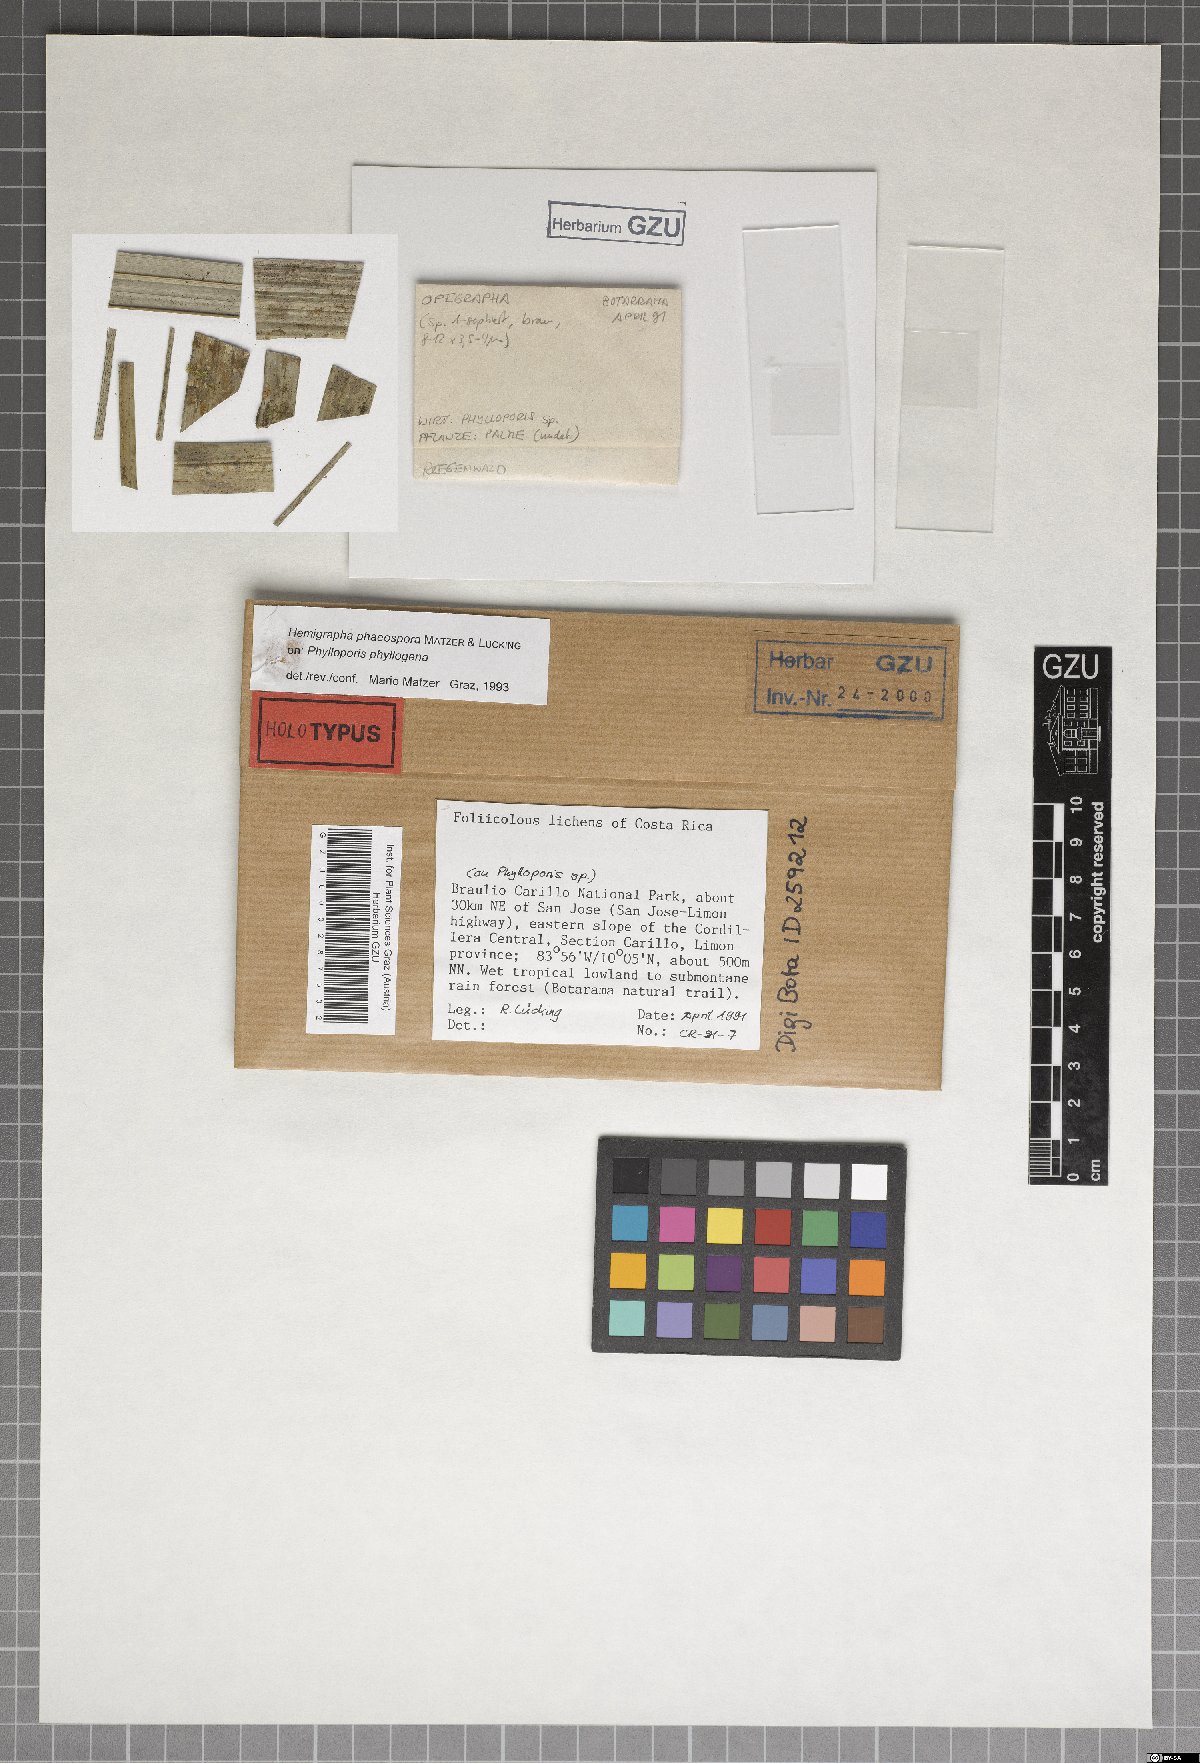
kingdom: Fungi
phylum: Ascomycota
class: Dothideomycetes
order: Asterinales
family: Hemigraphaceae
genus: Hemigrapha
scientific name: Hemigrapha phaeospora
